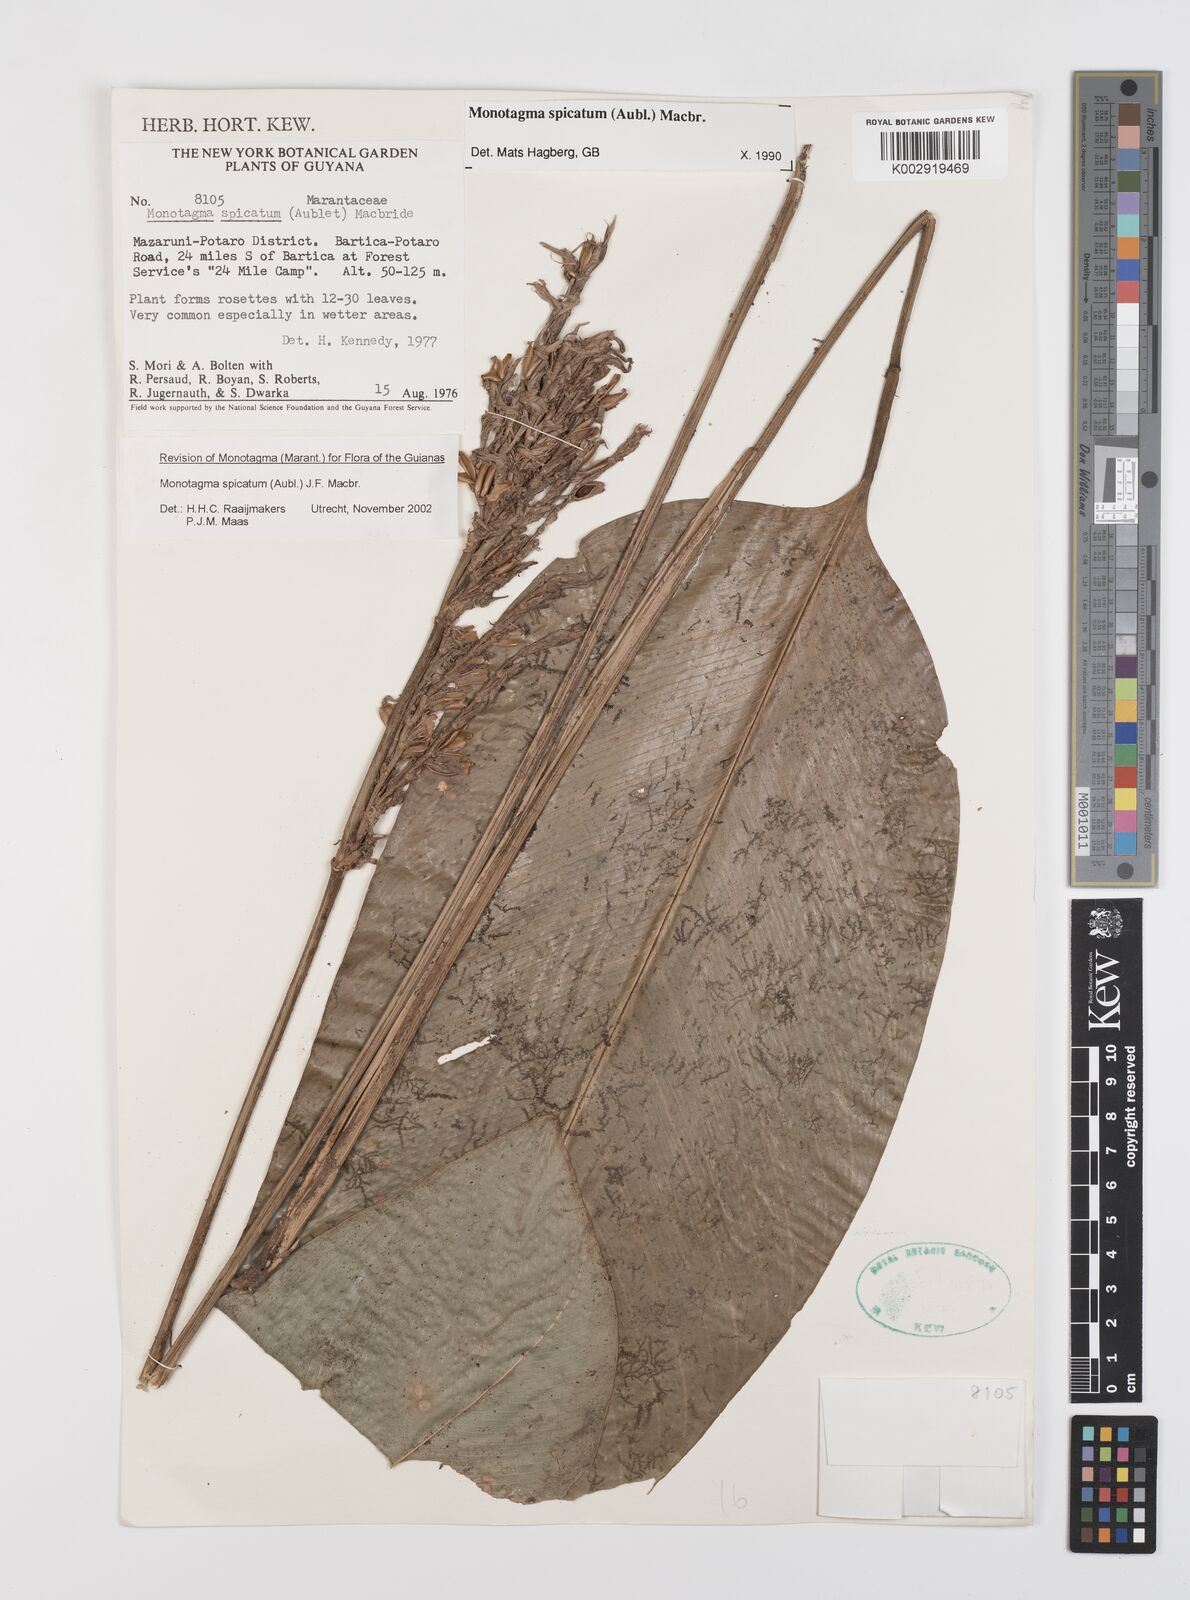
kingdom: Plantae
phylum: Tracheophyta
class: Liliopsida
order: Zingiberales
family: Marantaceae
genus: Monotagma
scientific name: Monotagma spicatum
